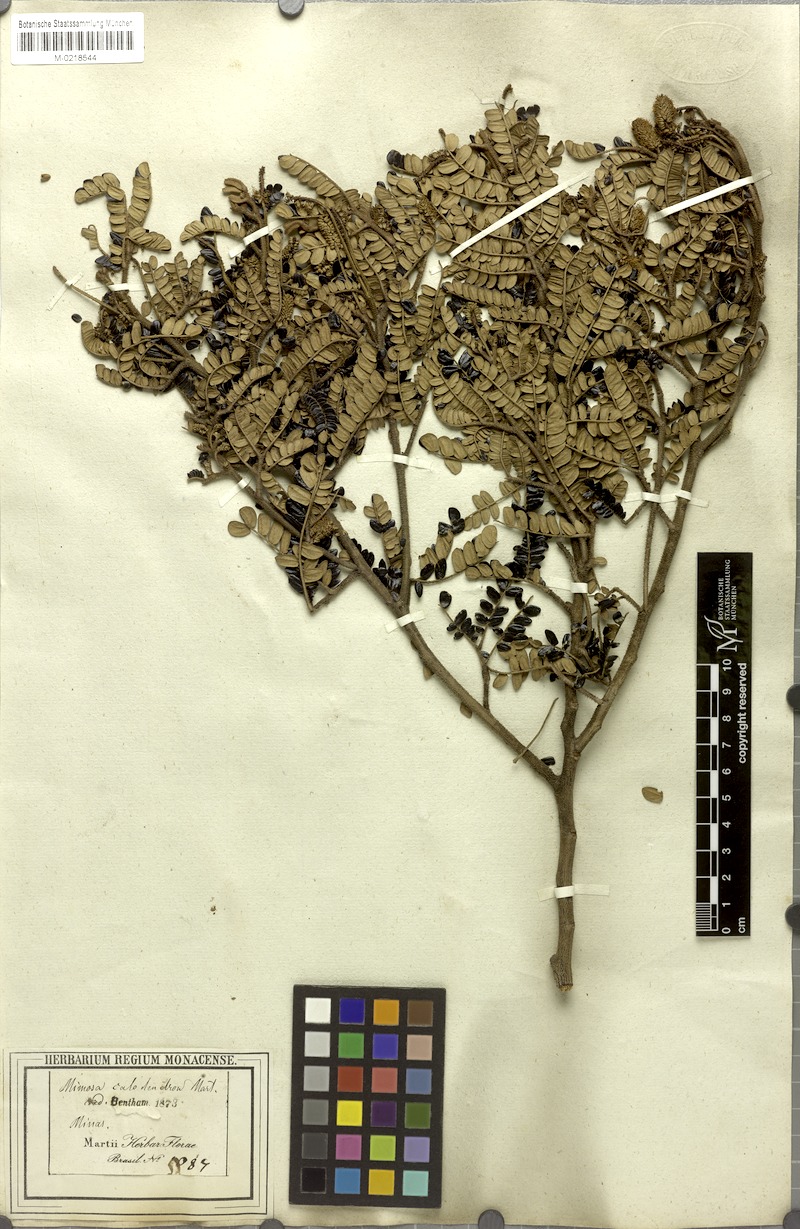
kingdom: Plantae
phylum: Tracheophyta
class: Magnoliopsida
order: Fabales
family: Fabaceae
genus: Mimosa
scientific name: Mimosa calodendron
